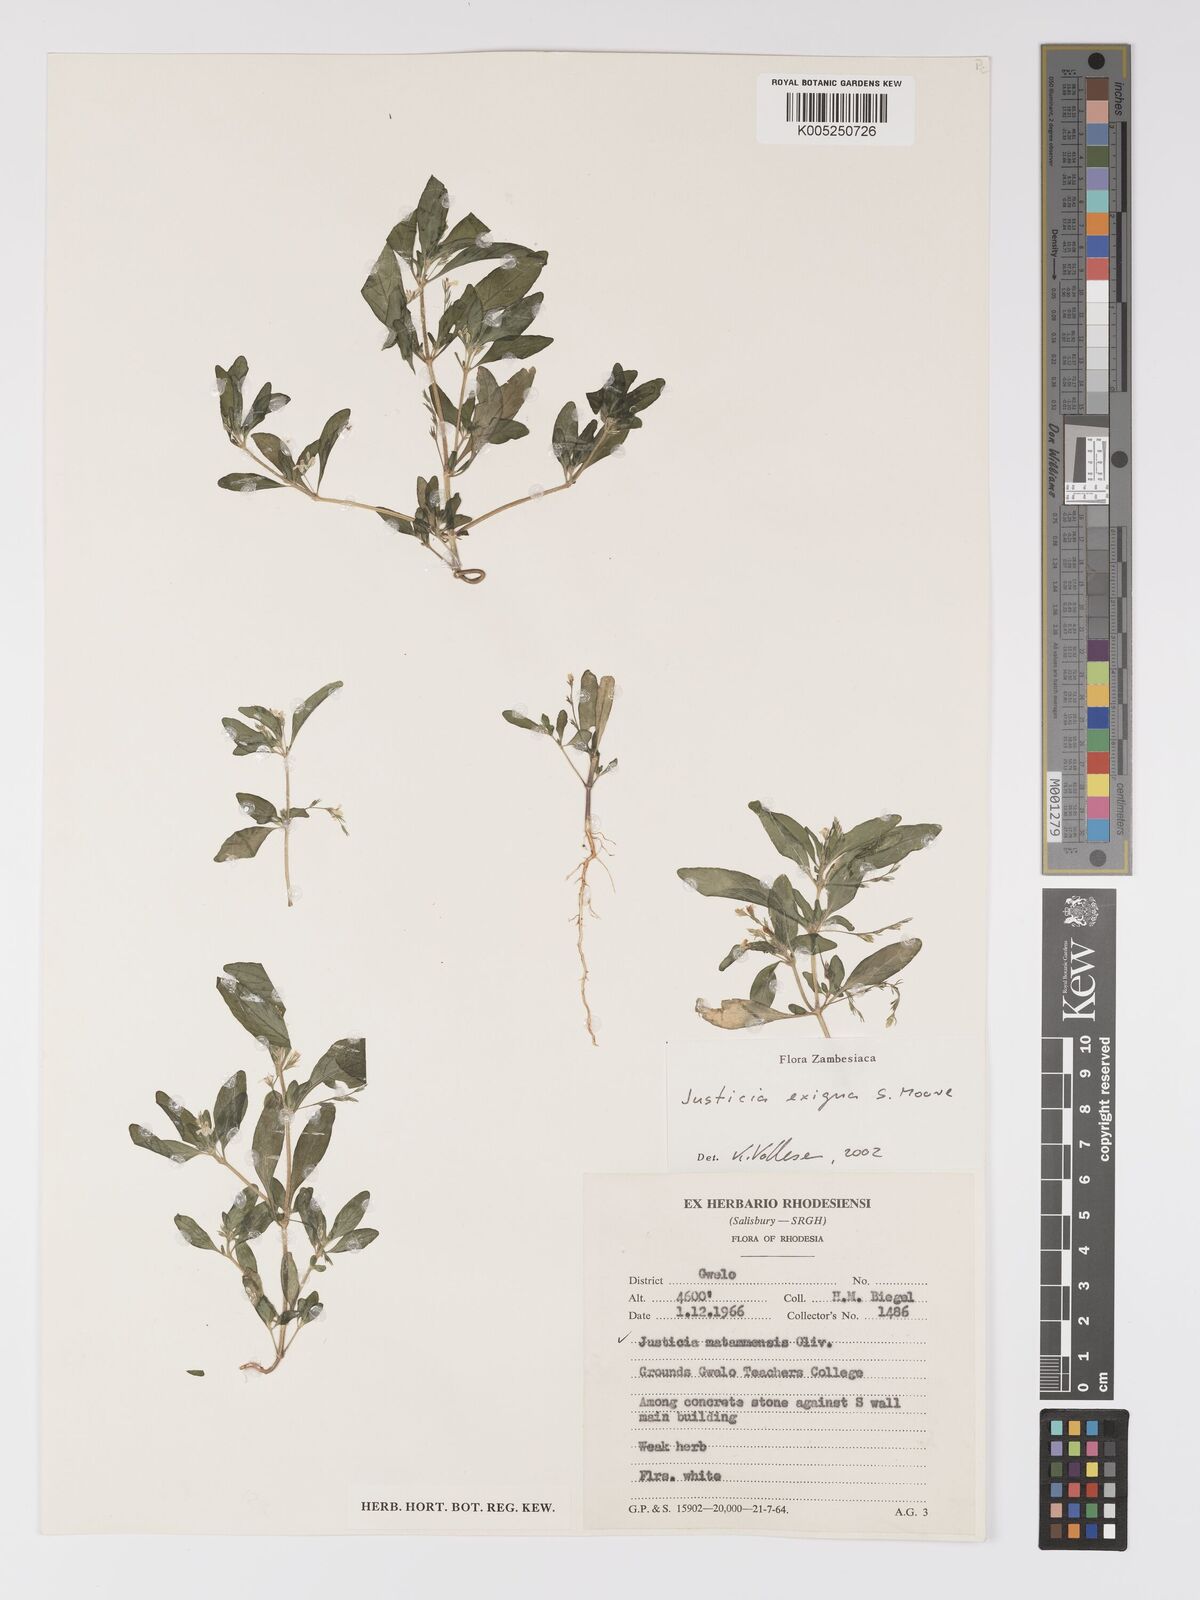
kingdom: Plantae
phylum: Tracheophyta
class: Magnoliopsida
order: Lamiales
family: Acanthaceae
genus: Justicia
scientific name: Justicia exigua
